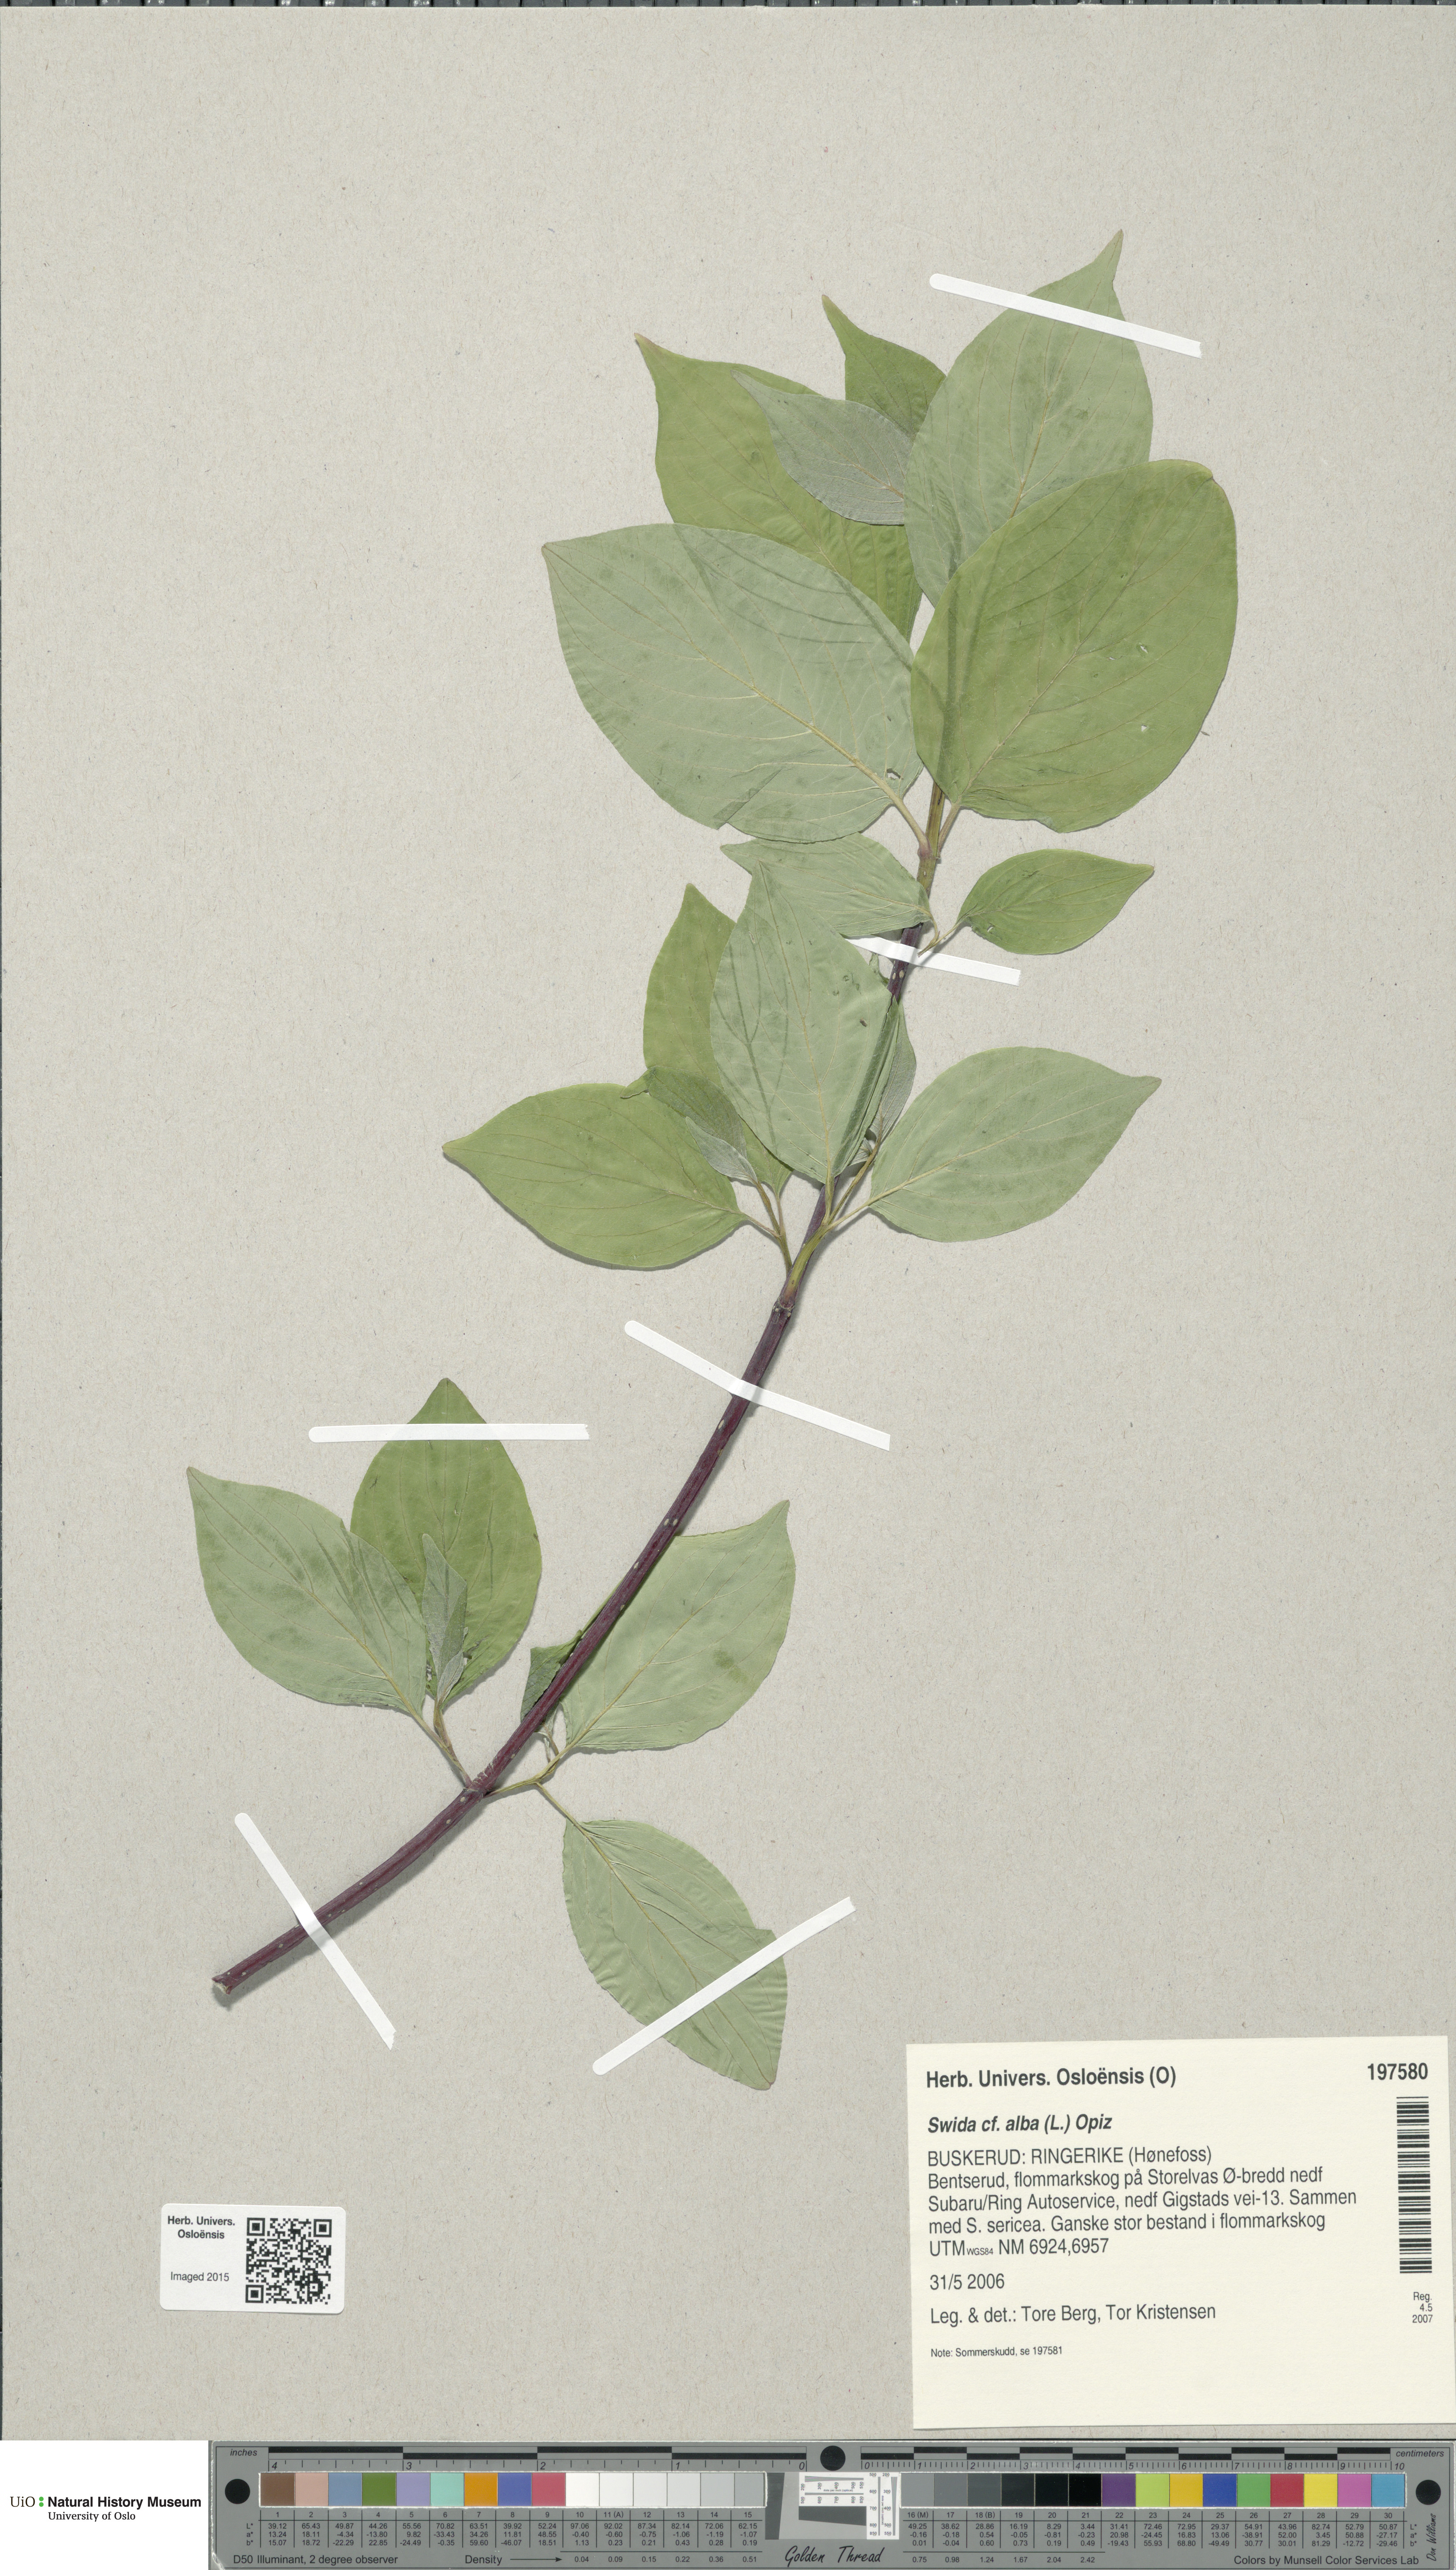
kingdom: Plantae
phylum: Tracheophyta
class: Magnoliopsida
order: Cornales
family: Cornaceae
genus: Cornus
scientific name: Cornus alba
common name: White dogwood
